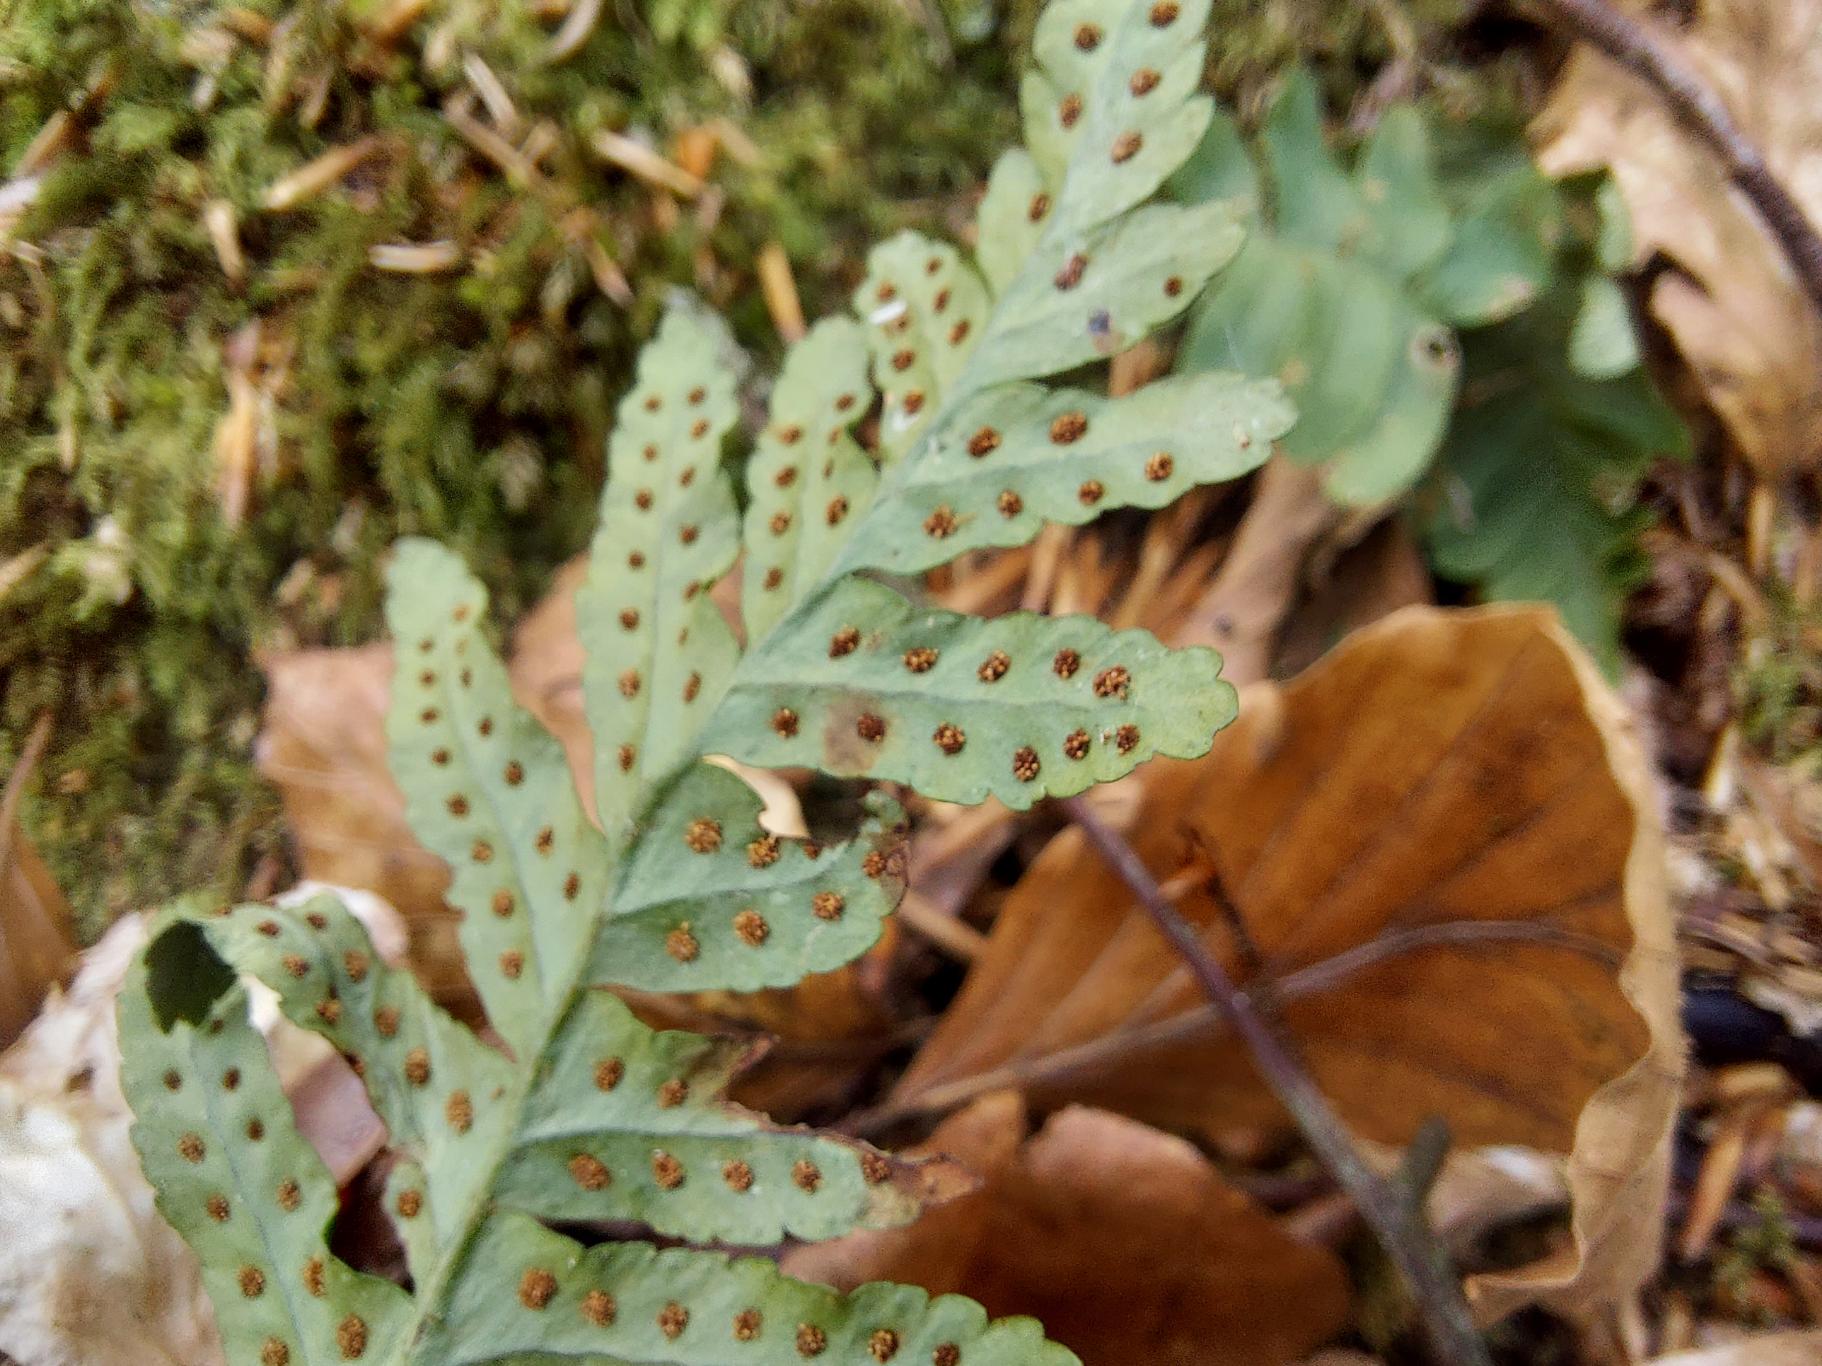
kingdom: Plantae
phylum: Tracheophyta
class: Polypodiopsida
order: Polypodiales
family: Polypodiaceae
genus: Polypodium
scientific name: Polypodium vulgare
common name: Almindelig engelsød
